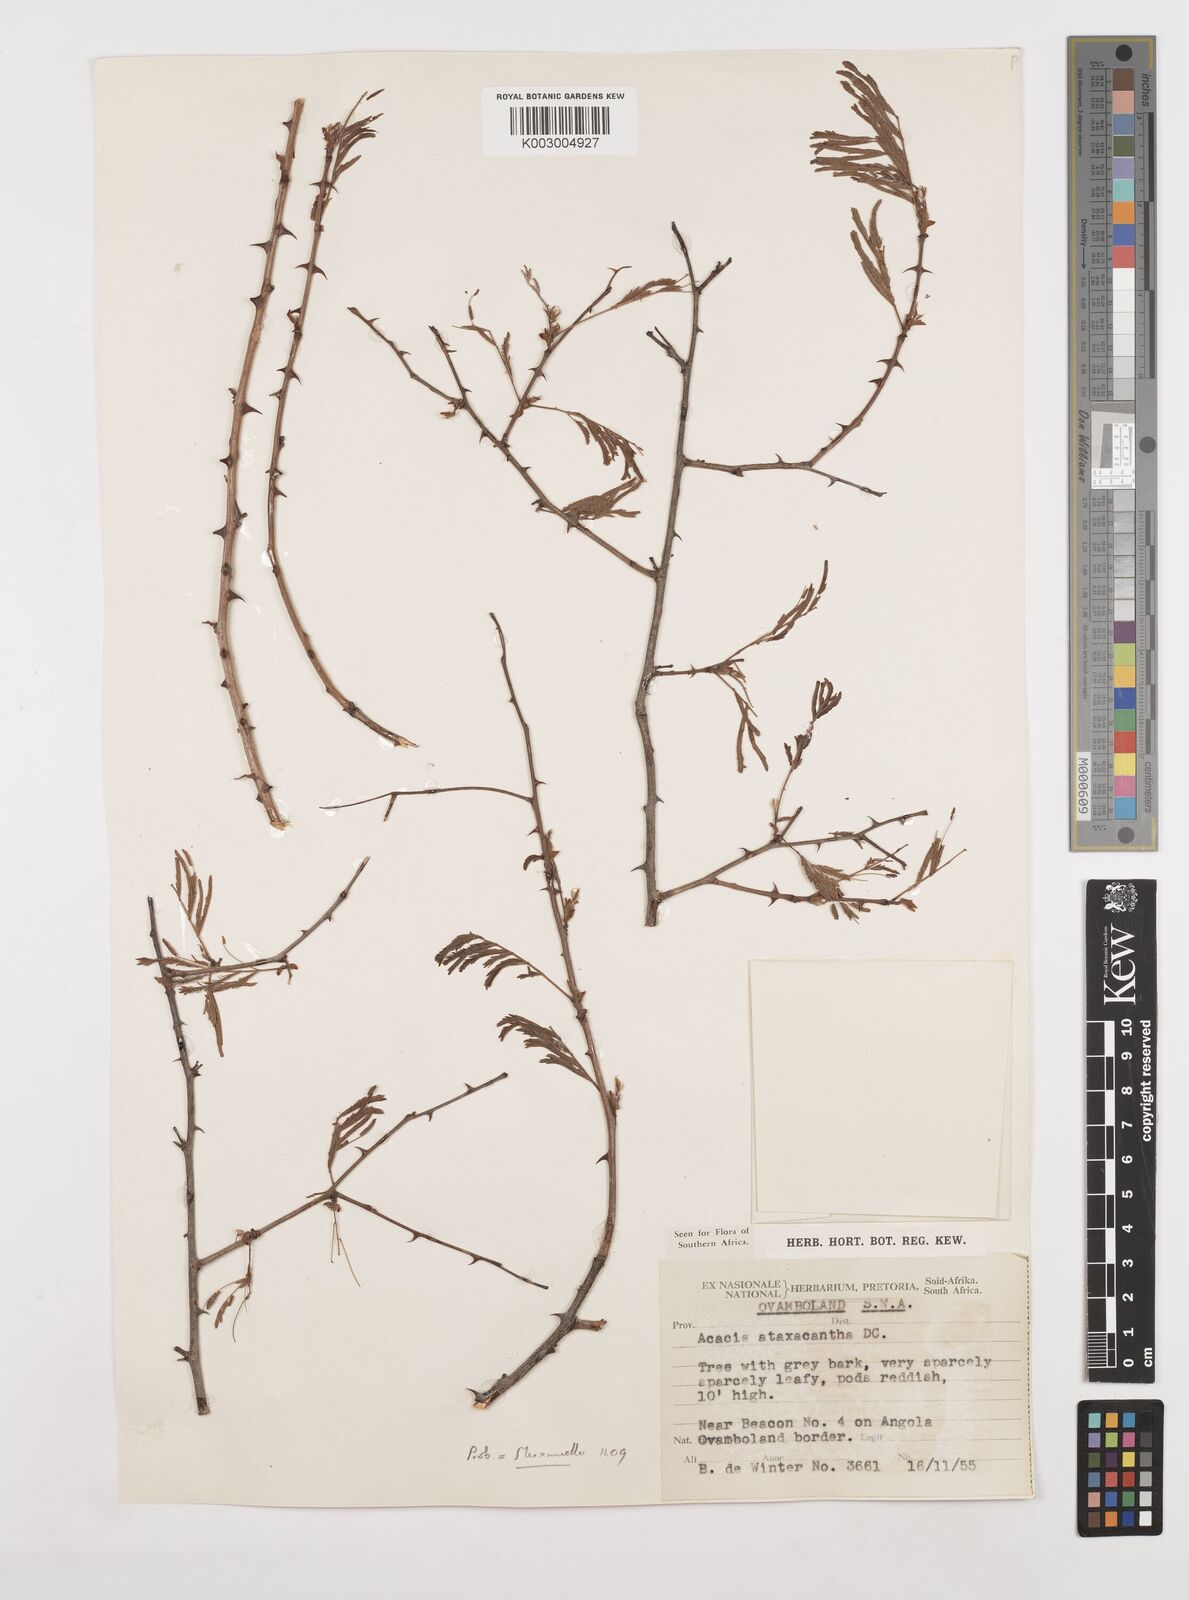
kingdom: Plantae
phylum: Tracheophyta
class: Magnoliopsida
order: Fabales
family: Fabaceae
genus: Senegalia
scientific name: Senegalia ataxacantha
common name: Flame acacia
